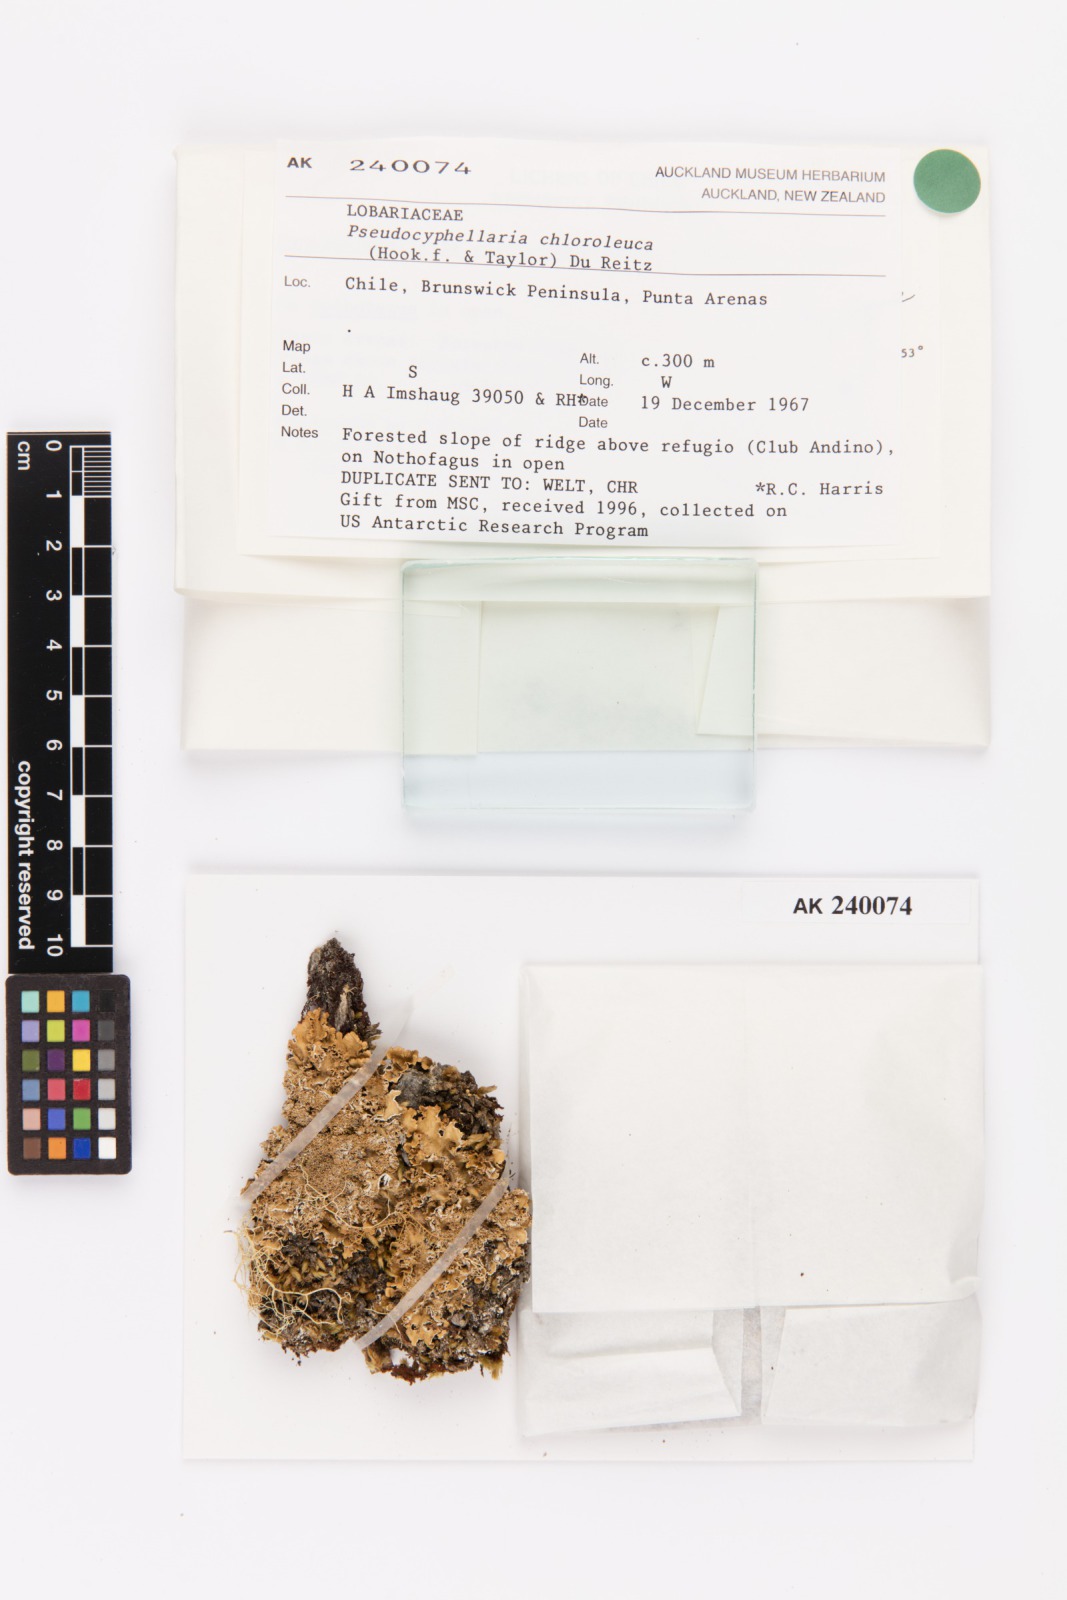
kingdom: Fungi
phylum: Ascomycota
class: Lecanoromycetes
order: Peltigerales
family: Lobariaceae
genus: Pseudocyphellaria
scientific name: Pseudocyphellaria chloroleuca
